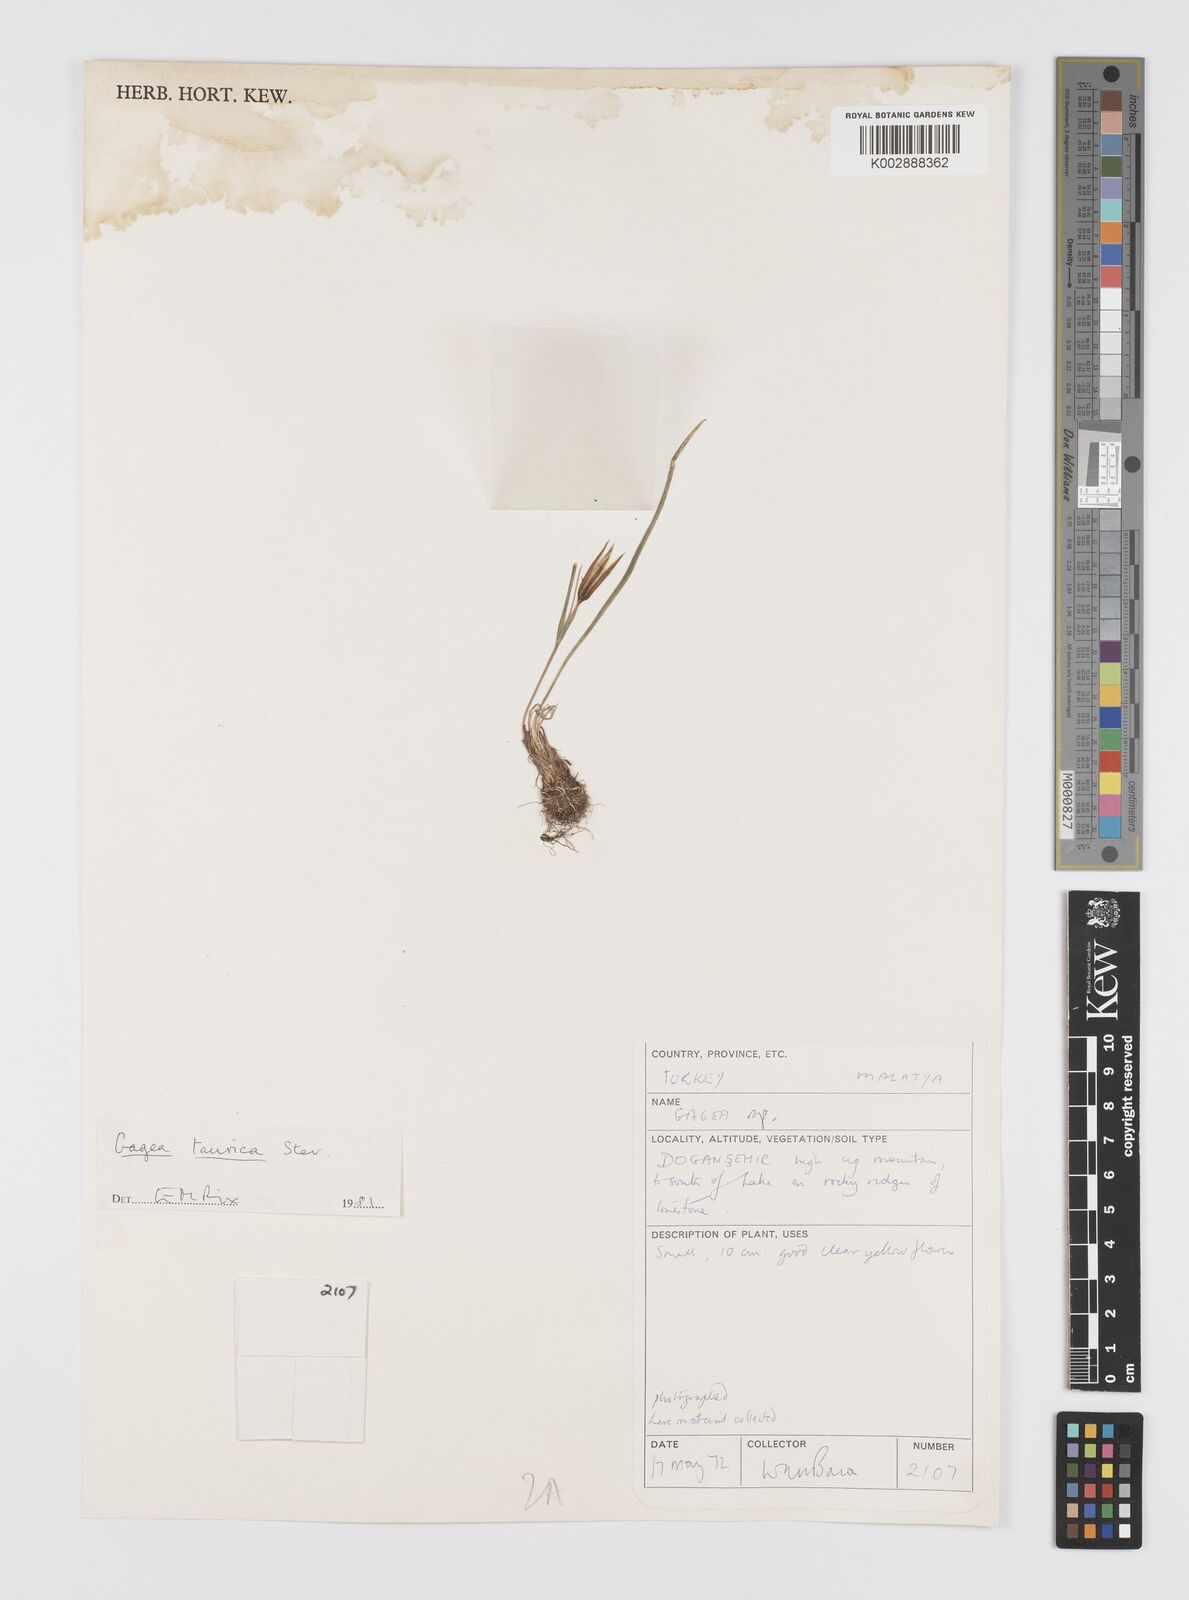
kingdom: Plantae
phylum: Tracheophyta
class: Liliopsida
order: Liliales
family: Liliaceae
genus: Gagea
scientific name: Gagea taurica
